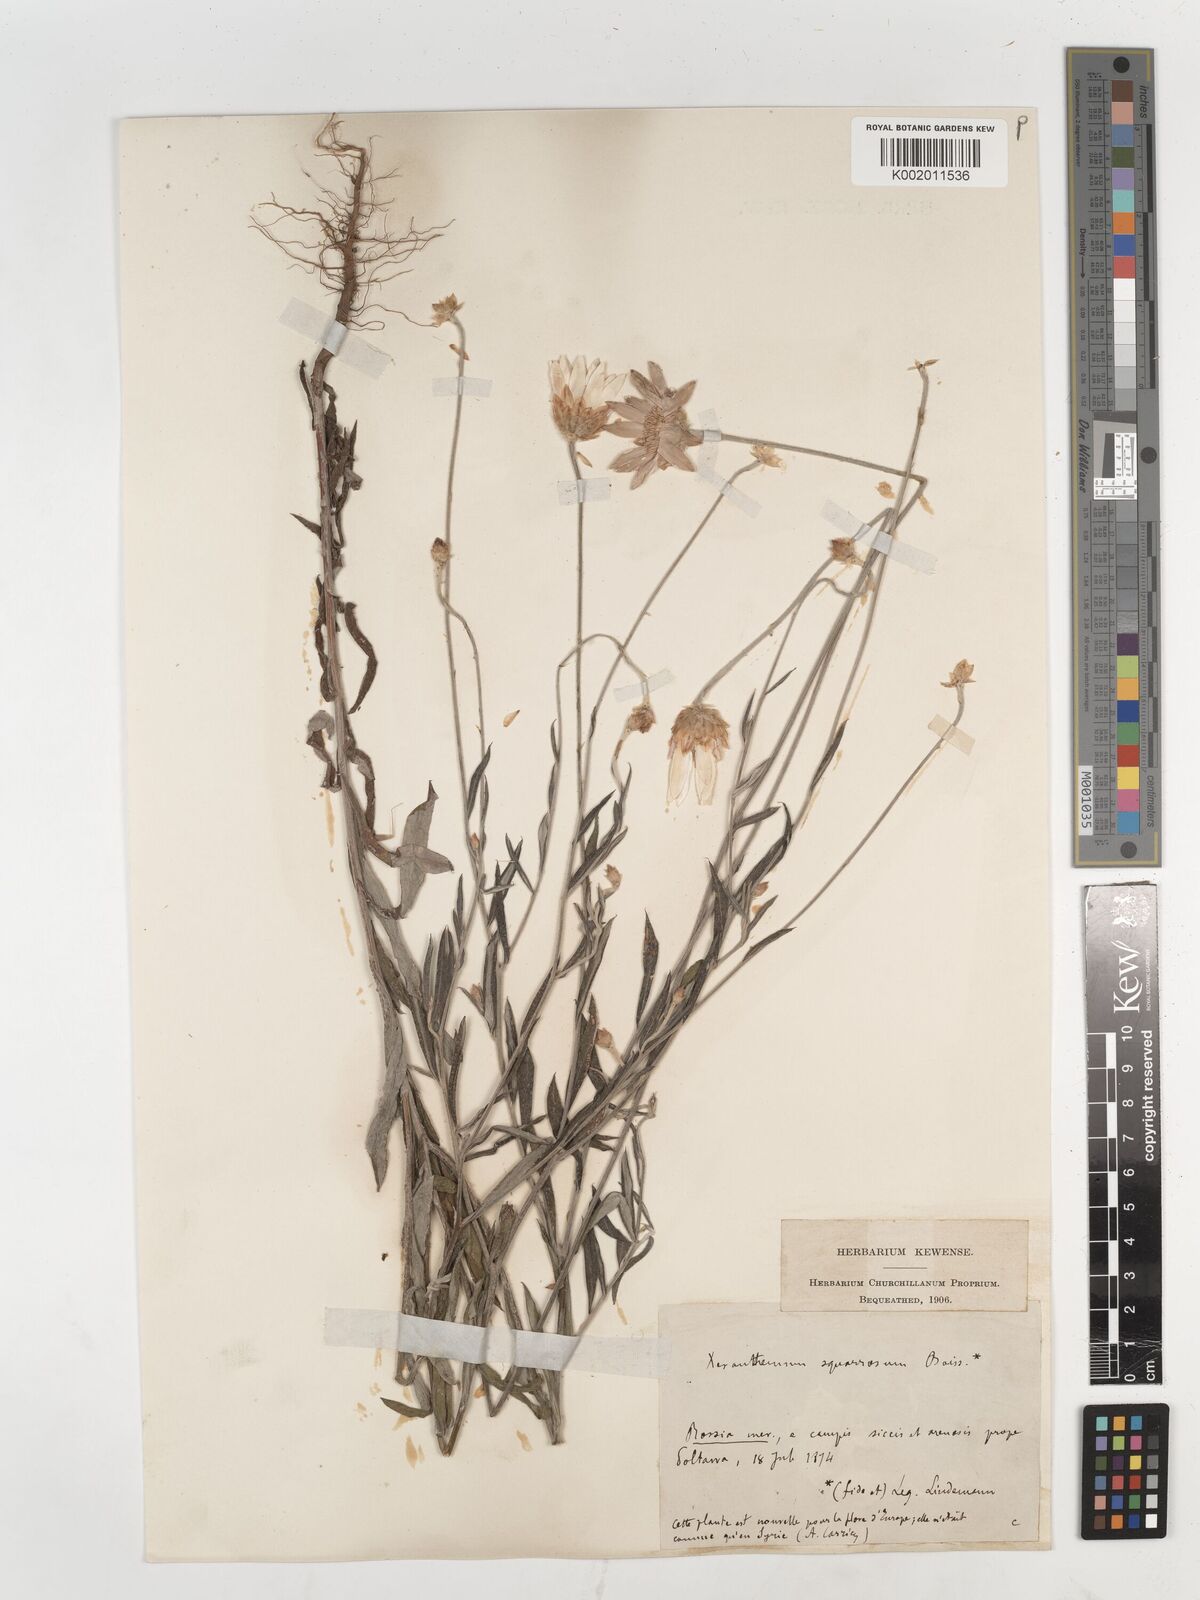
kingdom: Plantae
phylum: Tracheophyta
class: Magnoliopsida
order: Asterales
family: Asteraceae
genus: Xeranthemum
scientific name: Xeranthemum squarrosum
